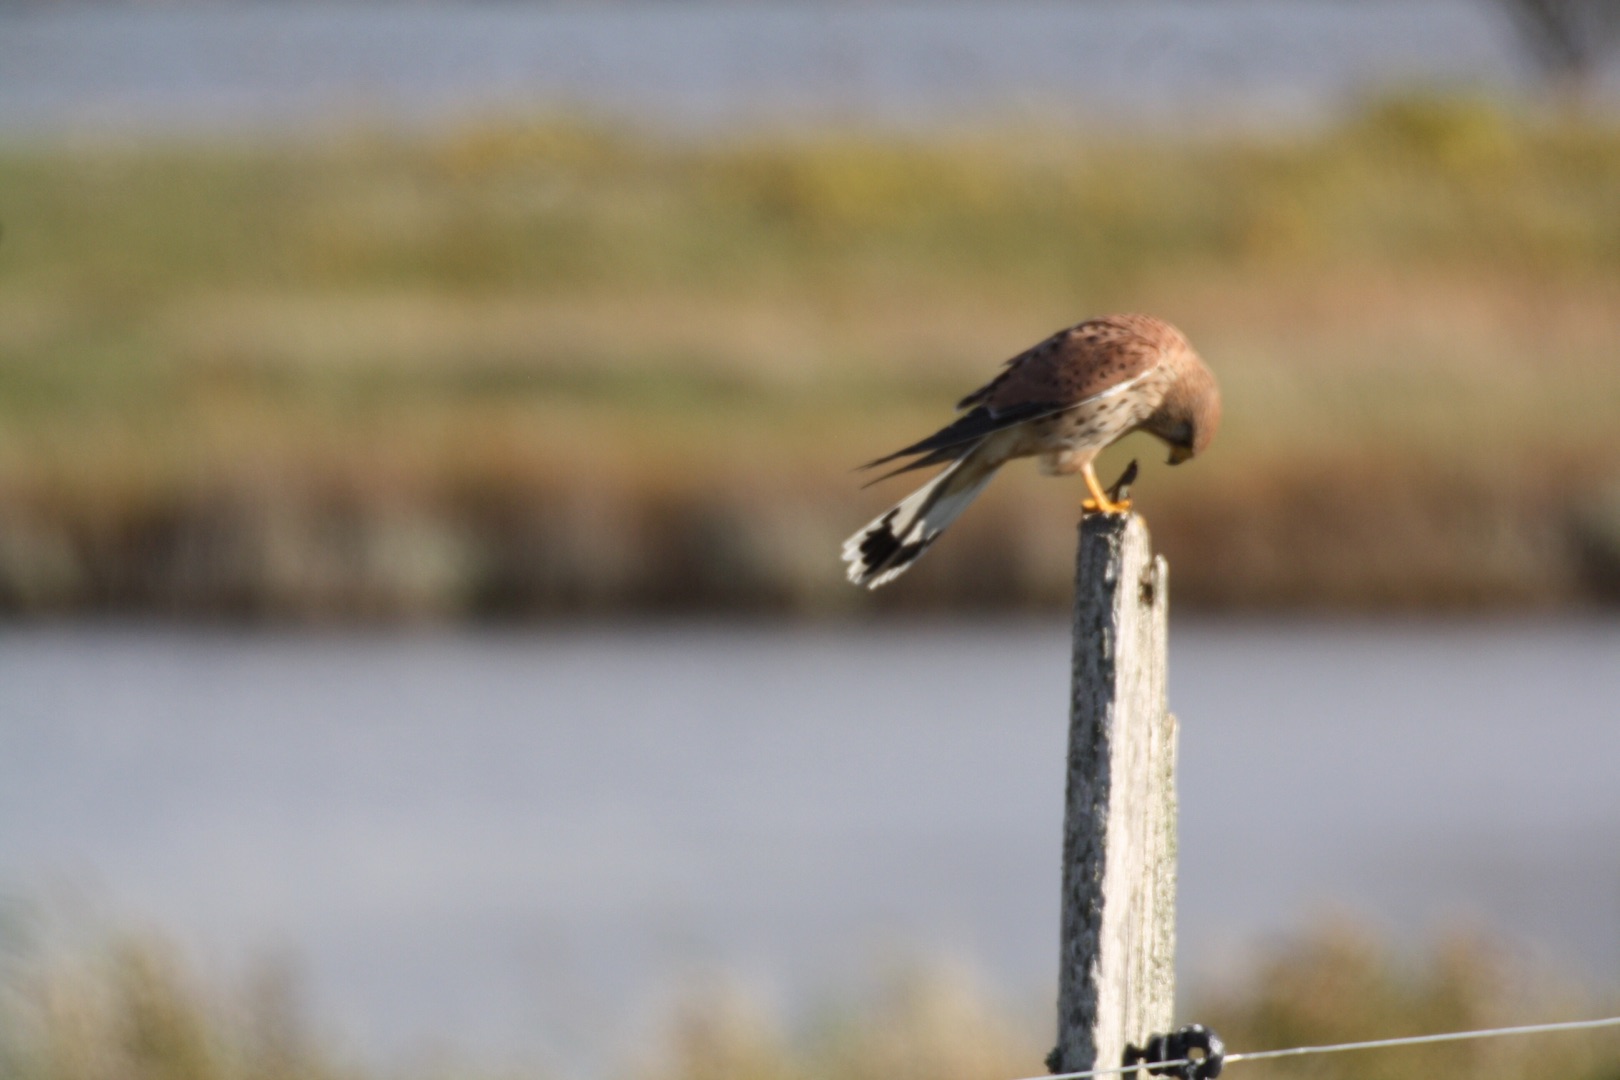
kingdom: Animalia
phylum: Chordata
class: Aves
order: Falconiformes
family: Falconidae
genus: Falco
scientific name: Falco tinnunculus
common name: Tårnfalk
